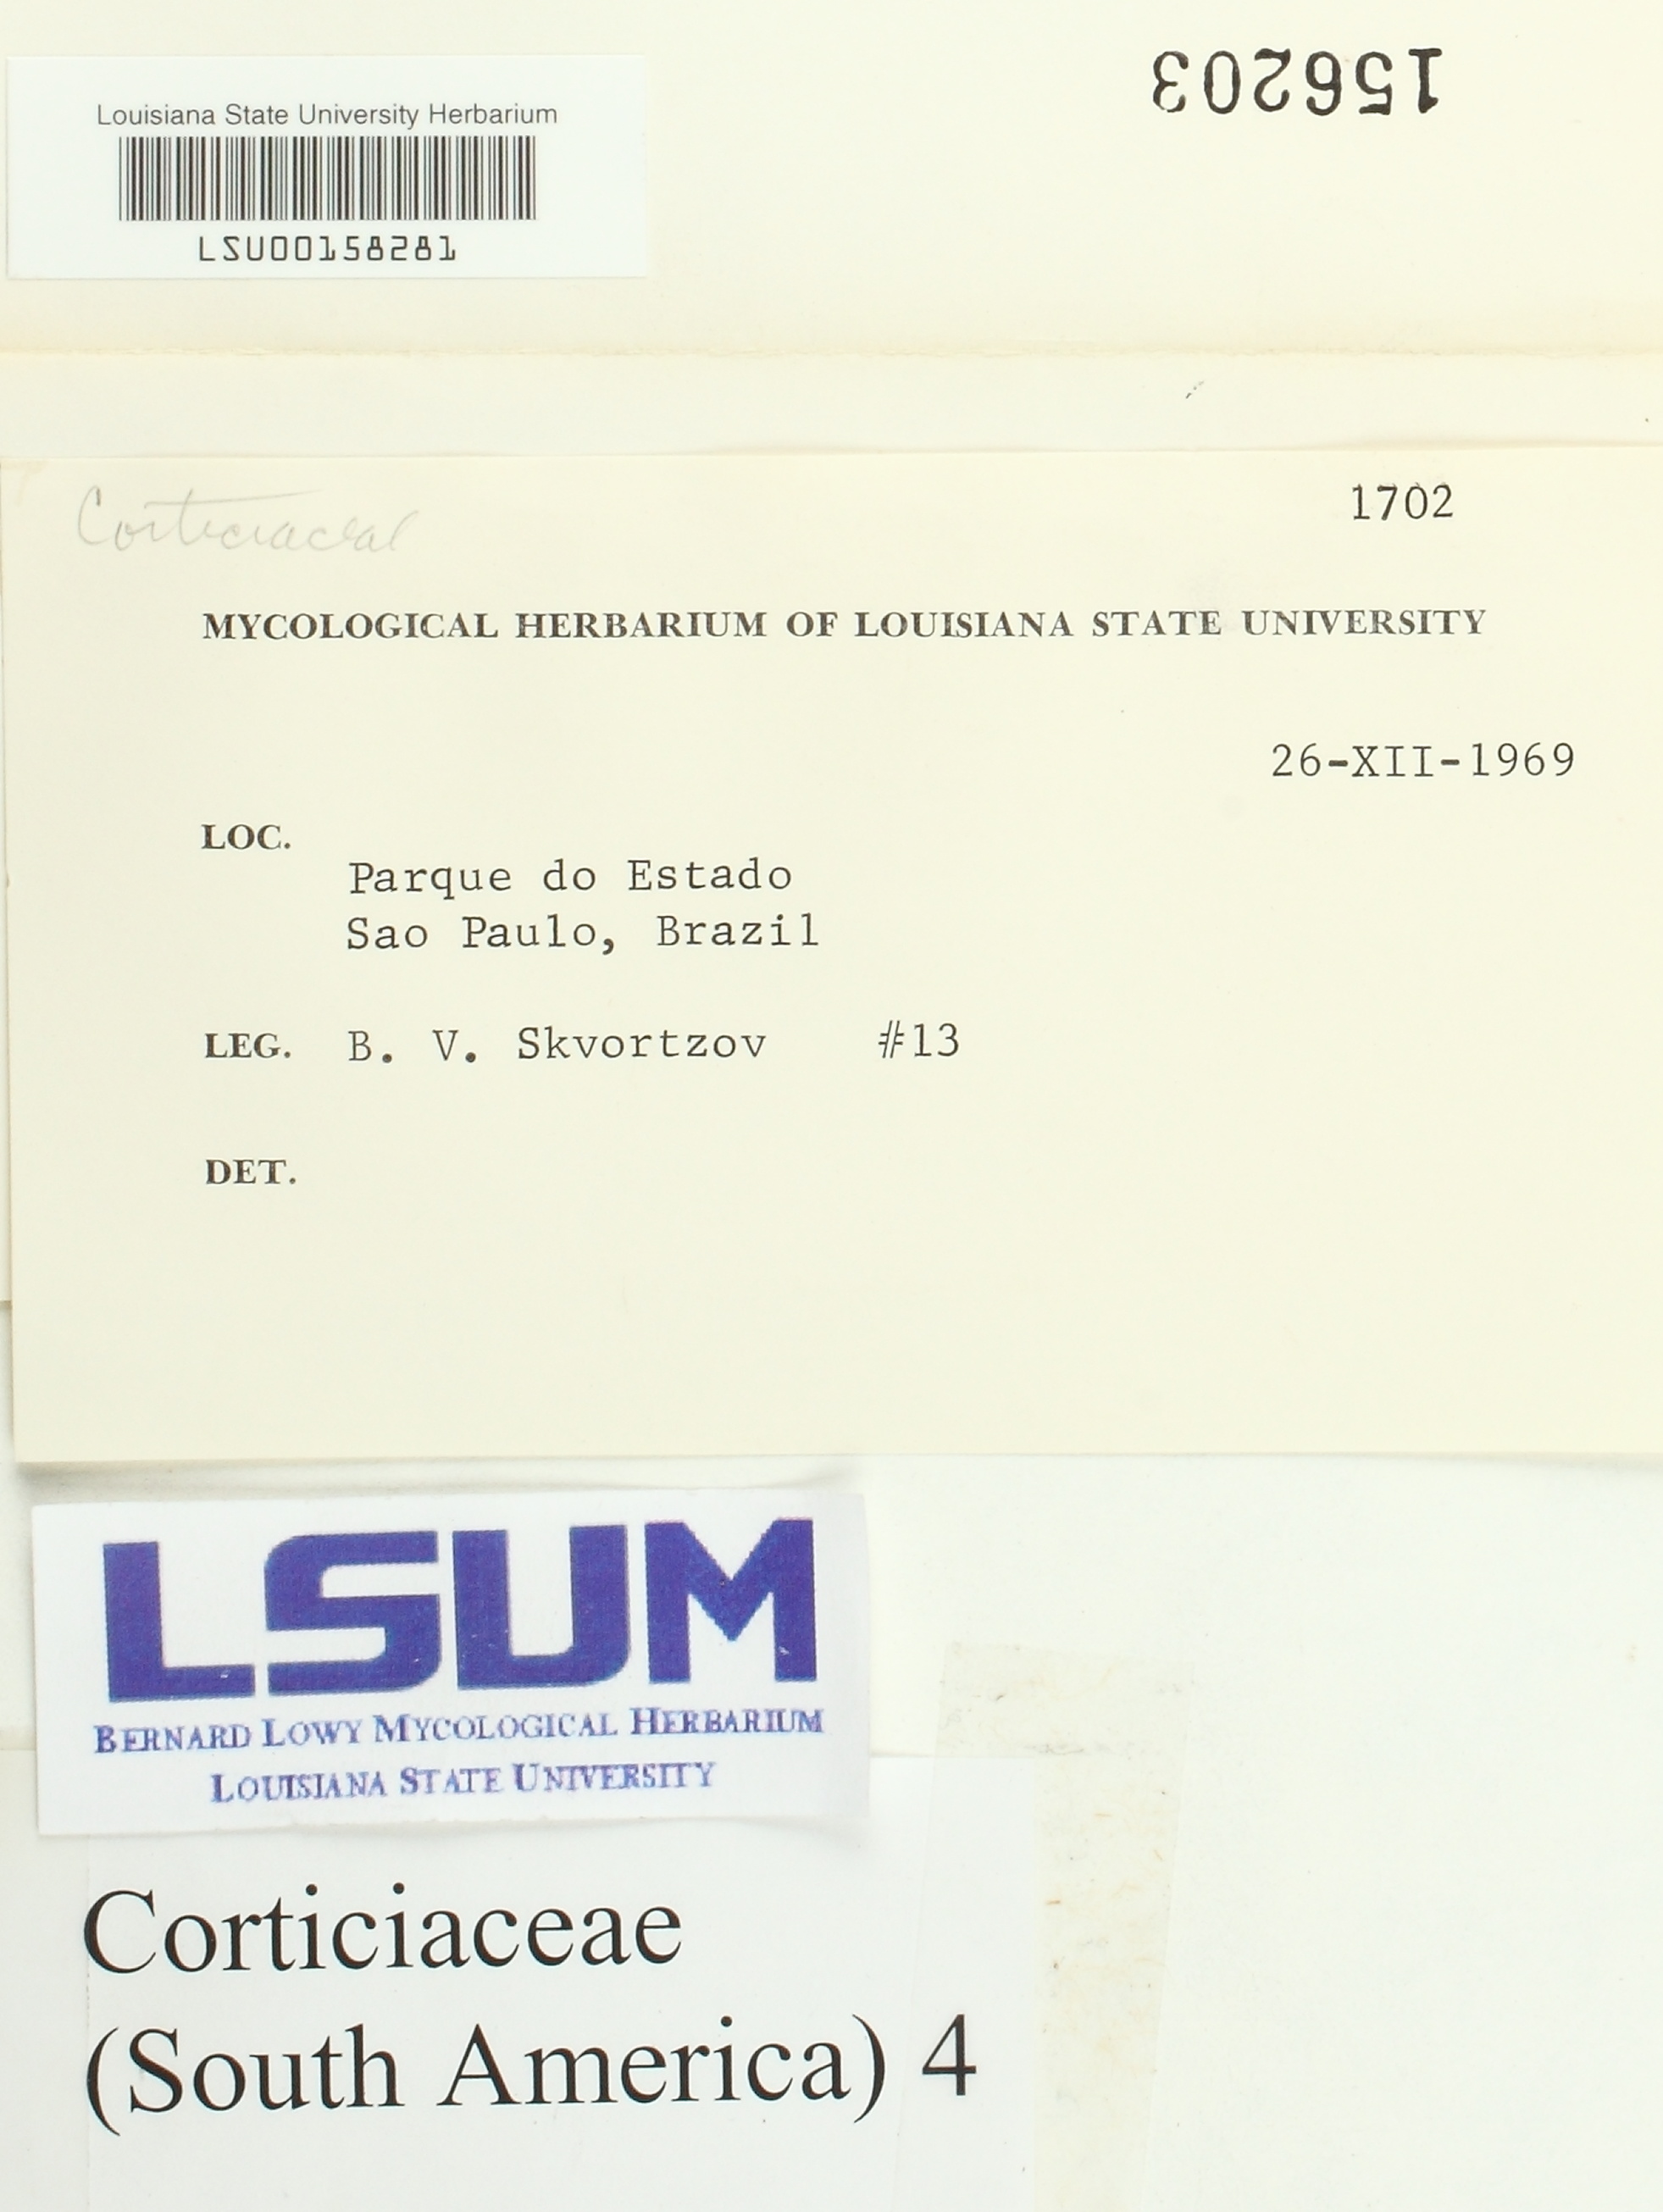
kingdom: Fungi
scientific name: Fungi
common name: Fungi
